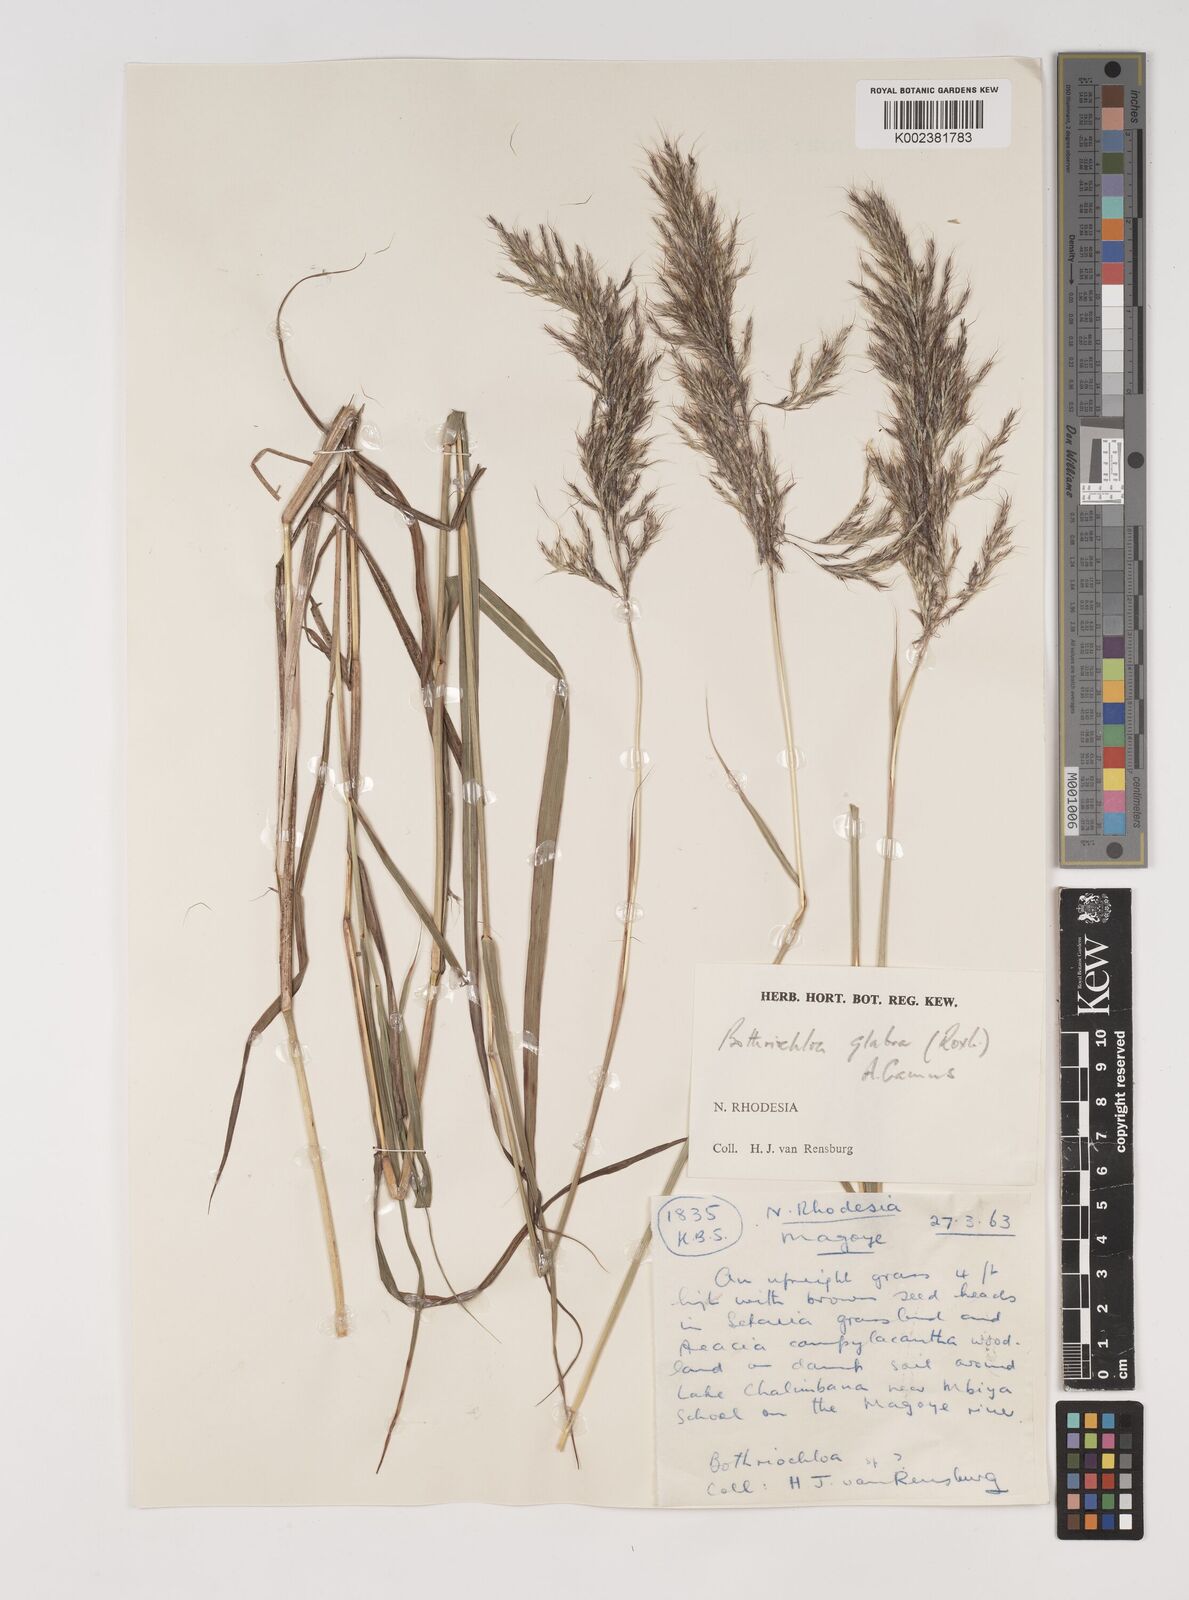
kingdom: Plantae
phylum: Tracheophyta
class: Liliopsida
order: Poales
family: Poaceae
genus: Bothriochloa
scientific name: Bothriochloa bladhii
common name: Caucasian bluestem
